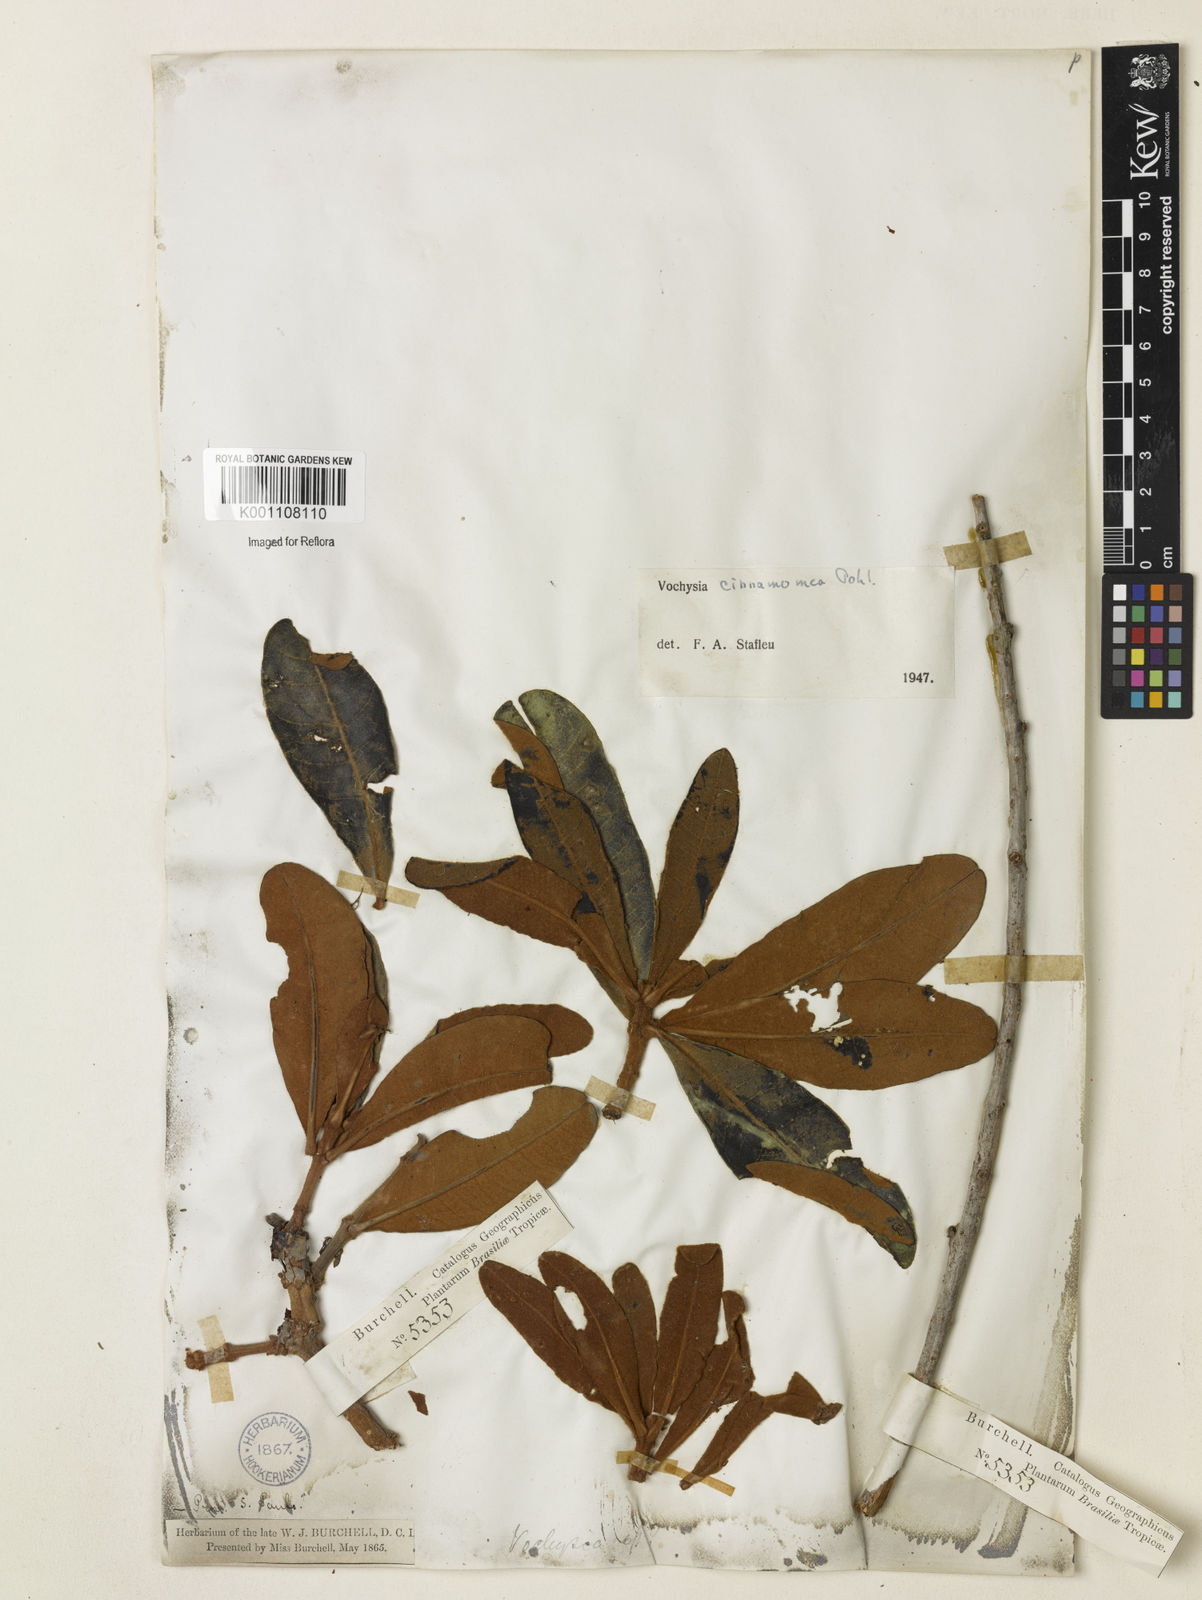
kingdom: Plantae
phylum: Tracheophyta
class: Magnoliopsida
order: Myrtales
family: Vochysiaceae
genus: Vochysia
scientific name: Vochysia cinnamomea
